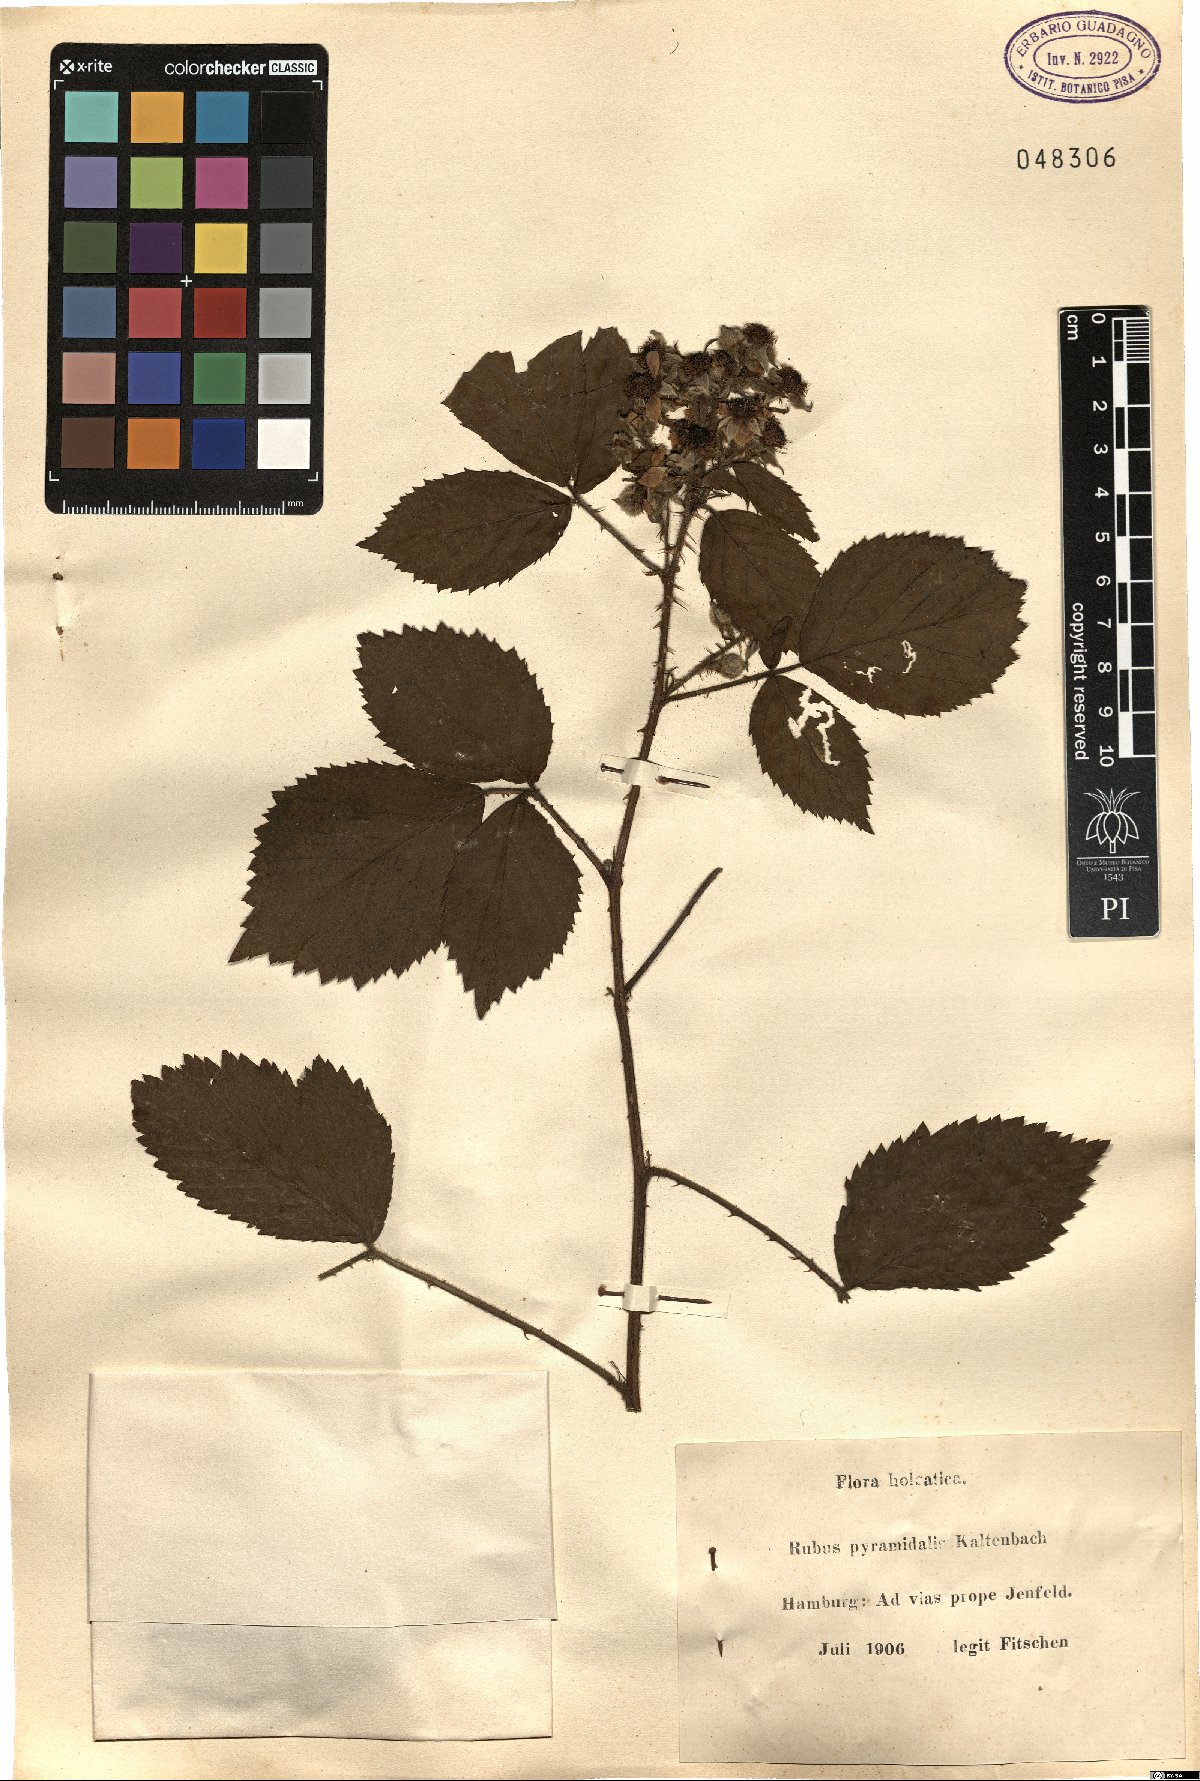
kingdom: Plantae
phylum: Tracheophyta
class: Magnoliopsida
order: Rosales
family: Rosaceae
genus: Rubus
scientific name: Rubus umbrosus
